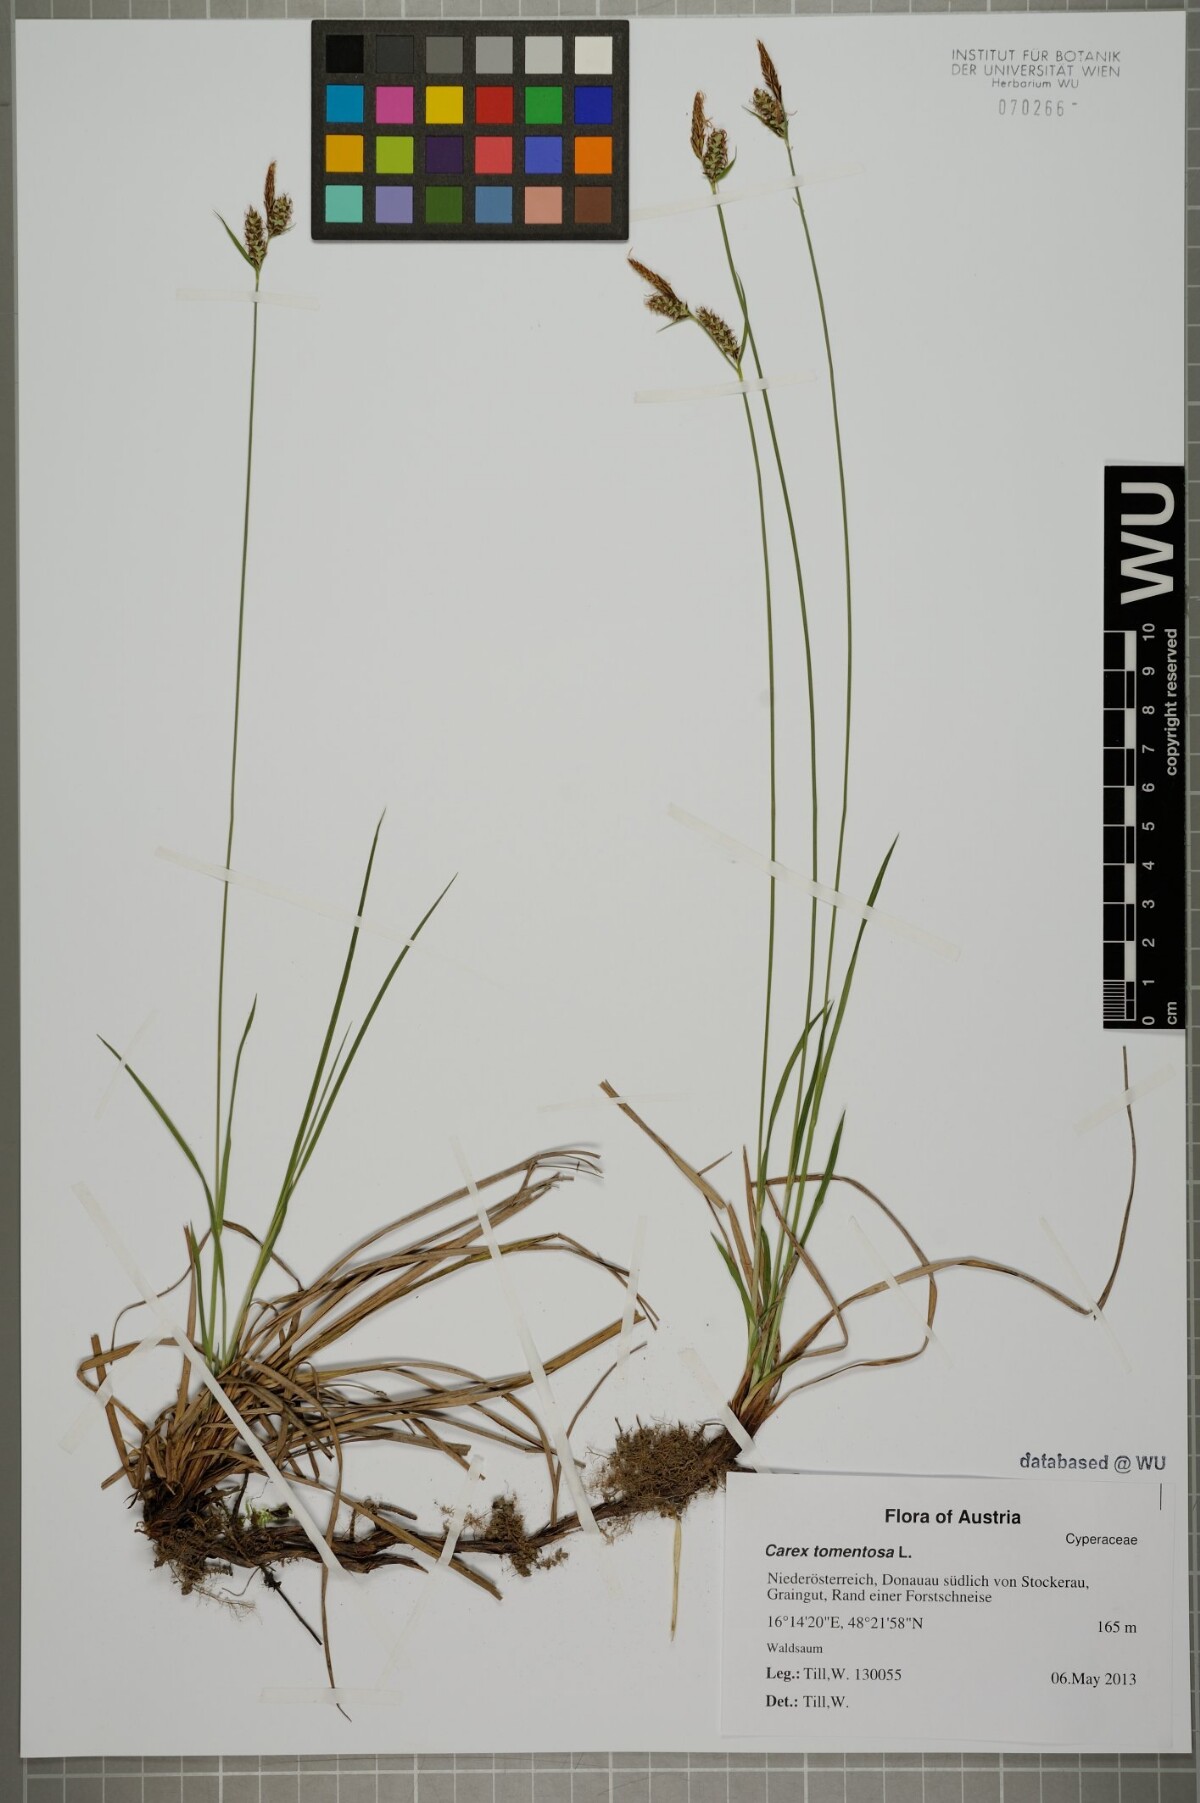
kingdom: Plantae
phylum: Tracheophyta
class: Liliopsida
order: Poales
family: Cyperaceae
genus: Carex
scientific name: Carex tomentosa
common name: Downy-fruited sedge
